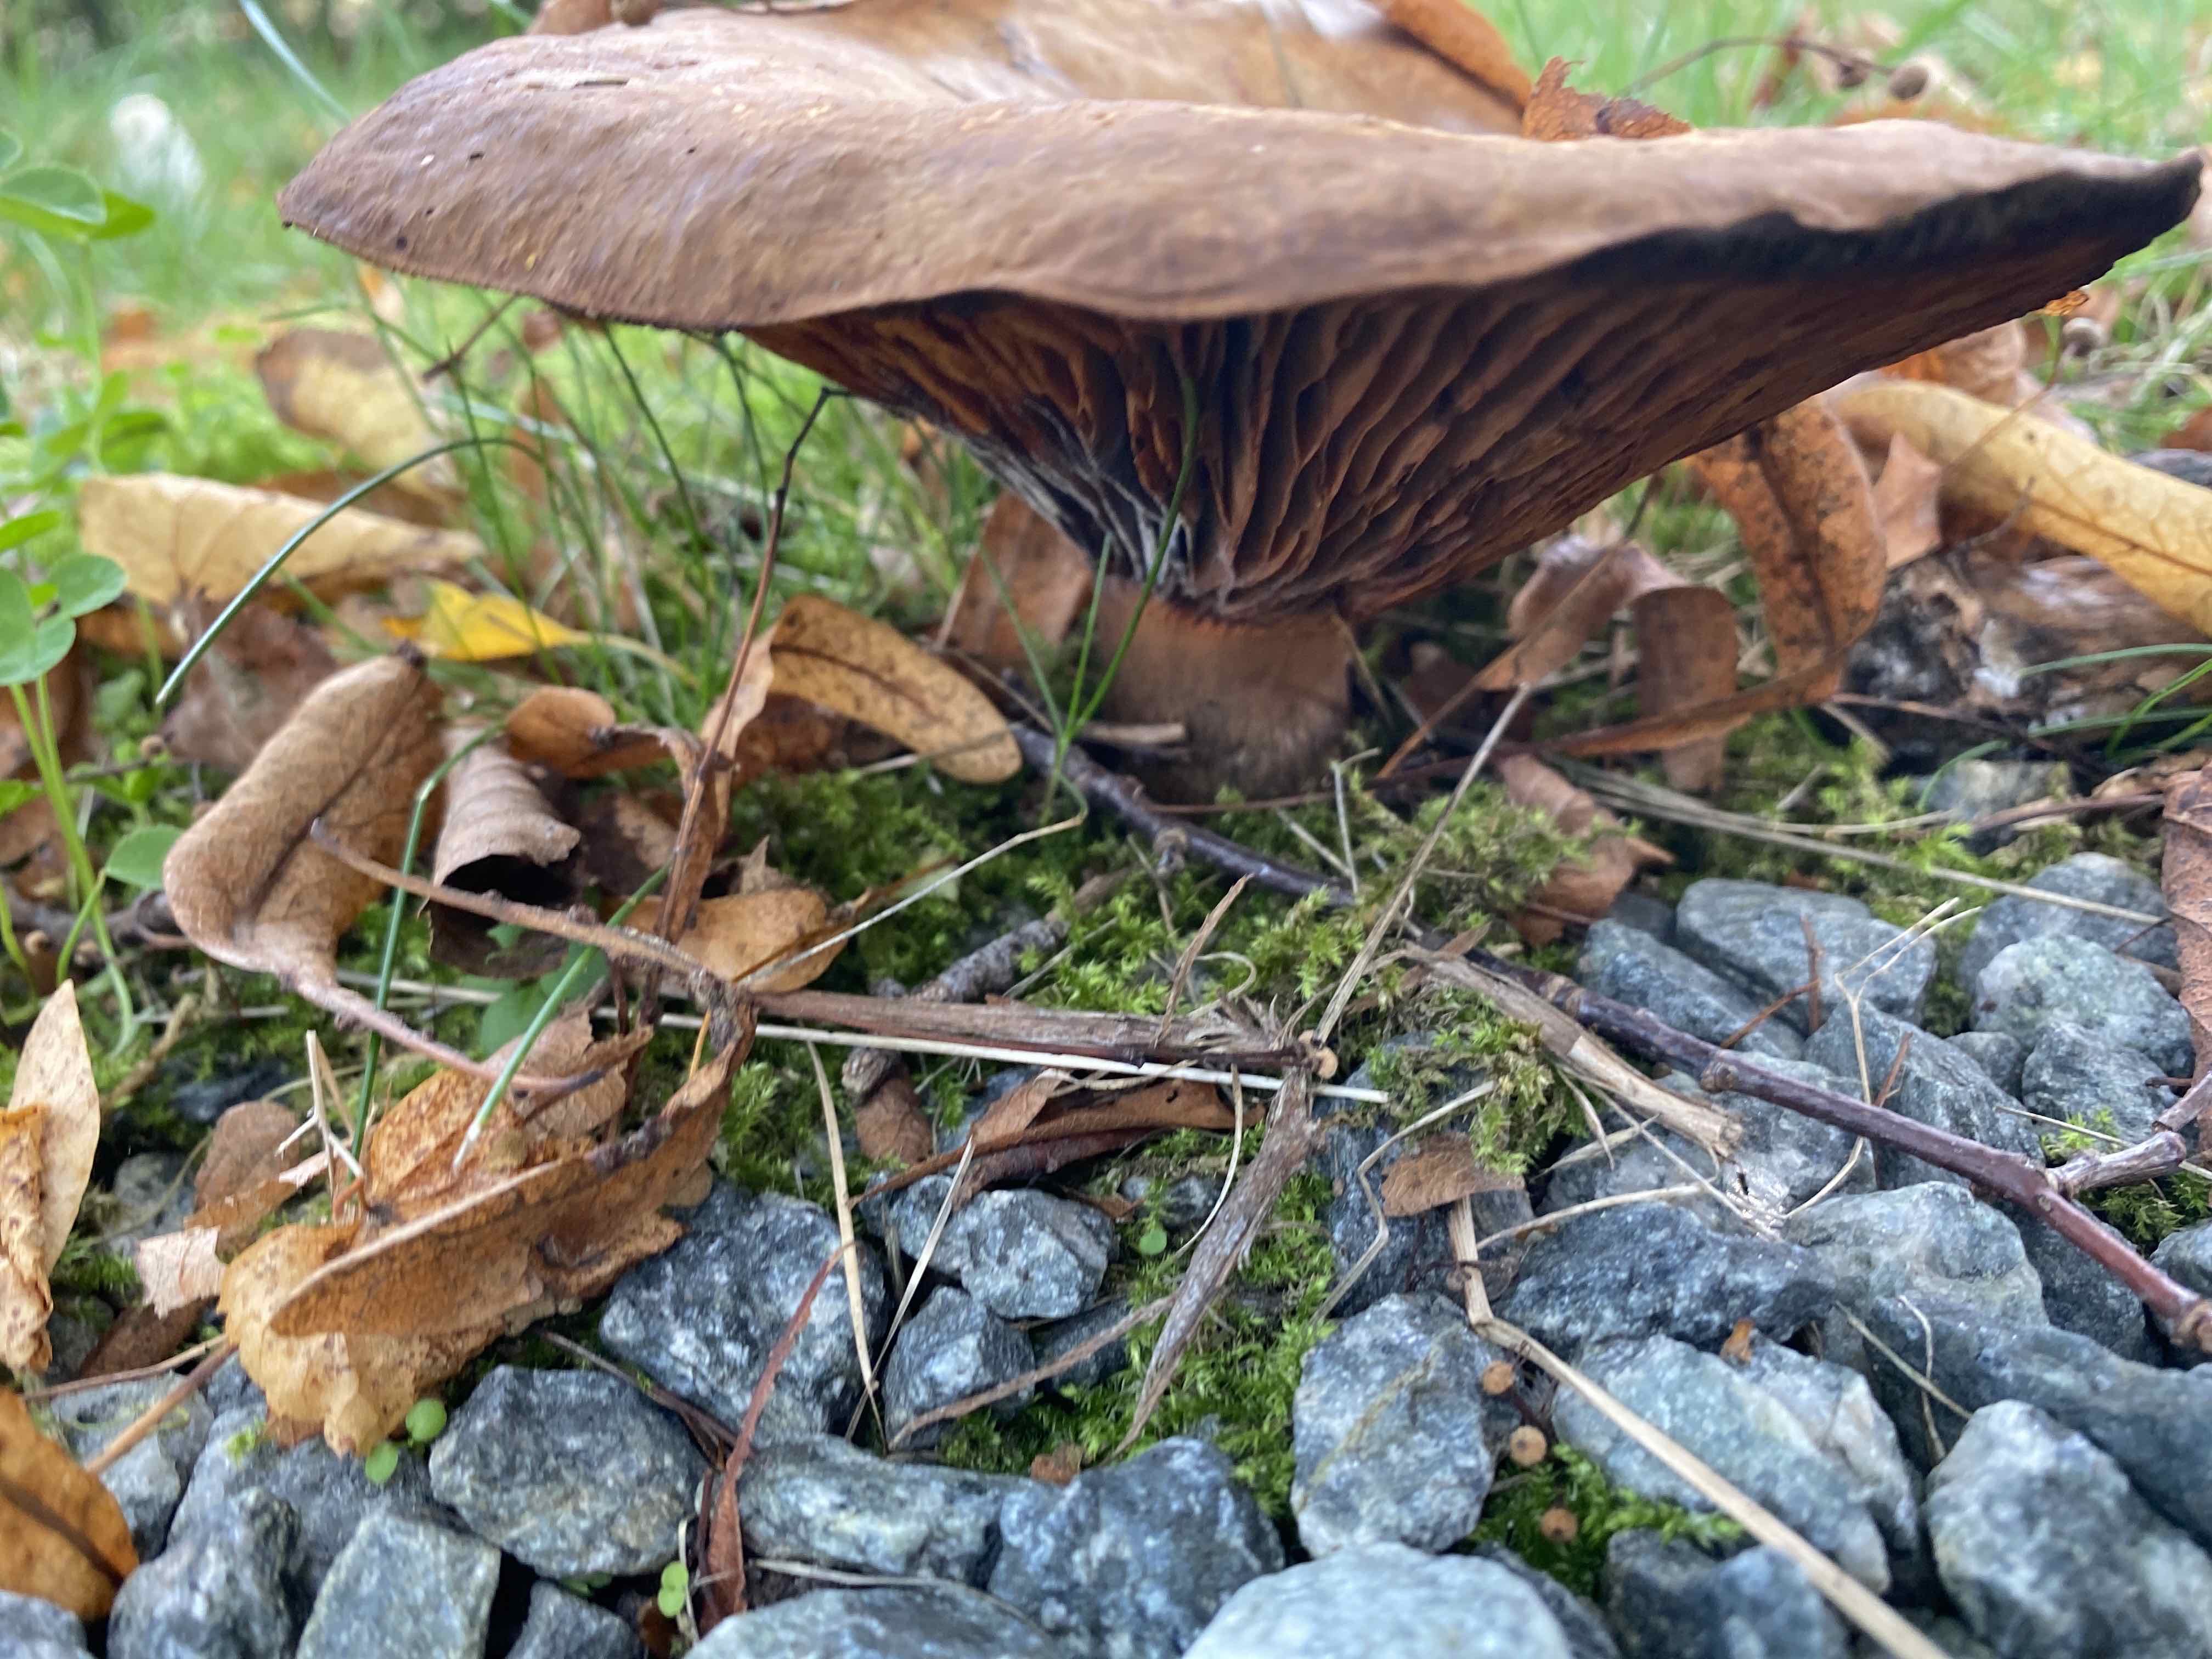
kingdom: Plantae
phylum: Bryophyta
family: Agaricomycetidae
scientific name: Agaricomycetidae
